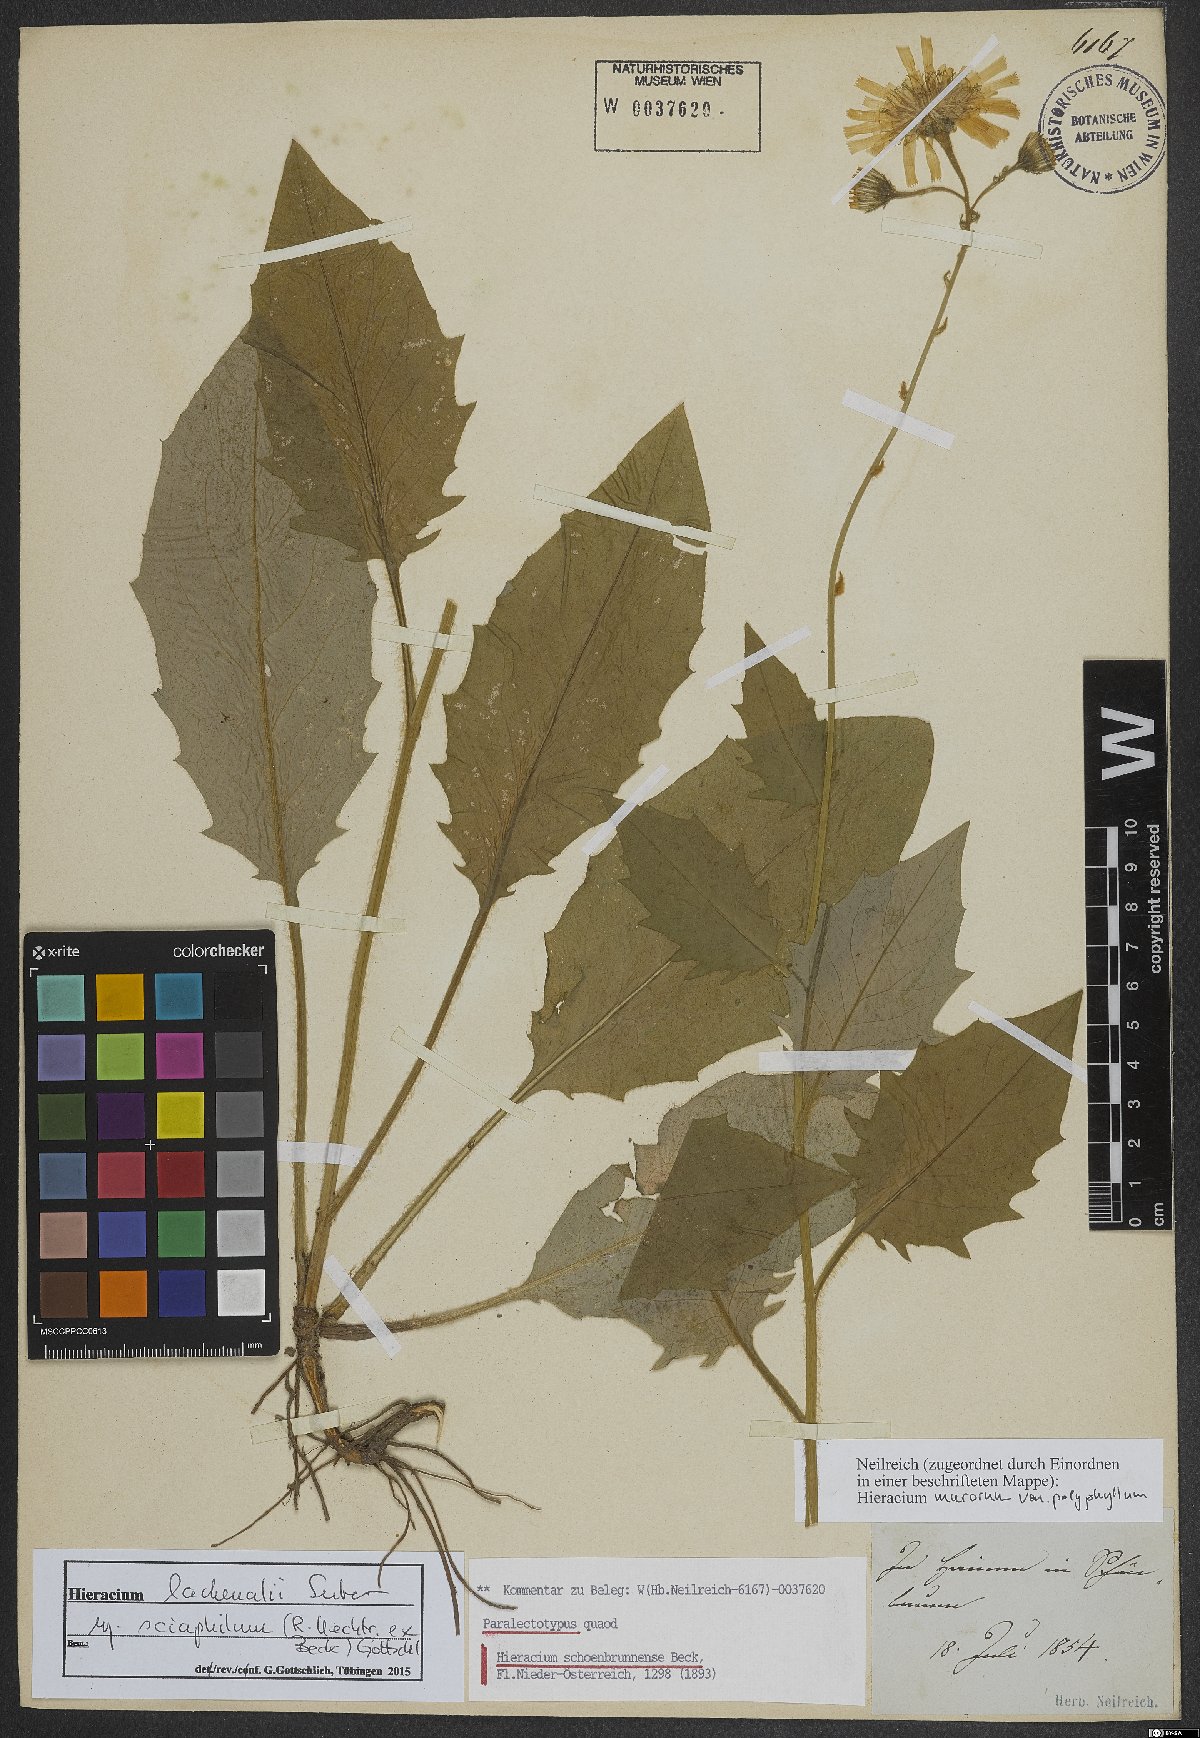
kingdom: Plantae
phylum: Tracheophyta
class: Magnoliopsida
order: Asterales
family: Asteraceae
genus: Hieracium
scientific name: Hieracium lachenalii
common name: Common hawkweed
